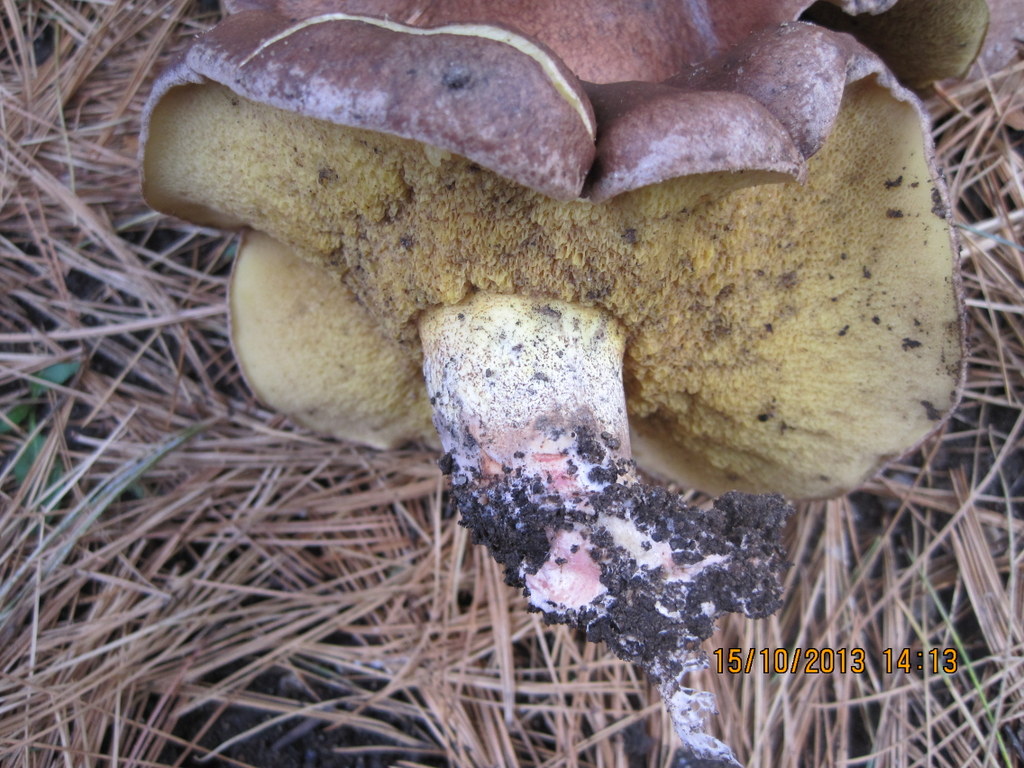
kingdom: Fungi
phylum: Basidiomycota
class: Agaricomycetes
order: Boletales
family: Suillaceae
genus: Suillus
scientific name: Suillus collinitus
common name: rosafodet slimrørhat
